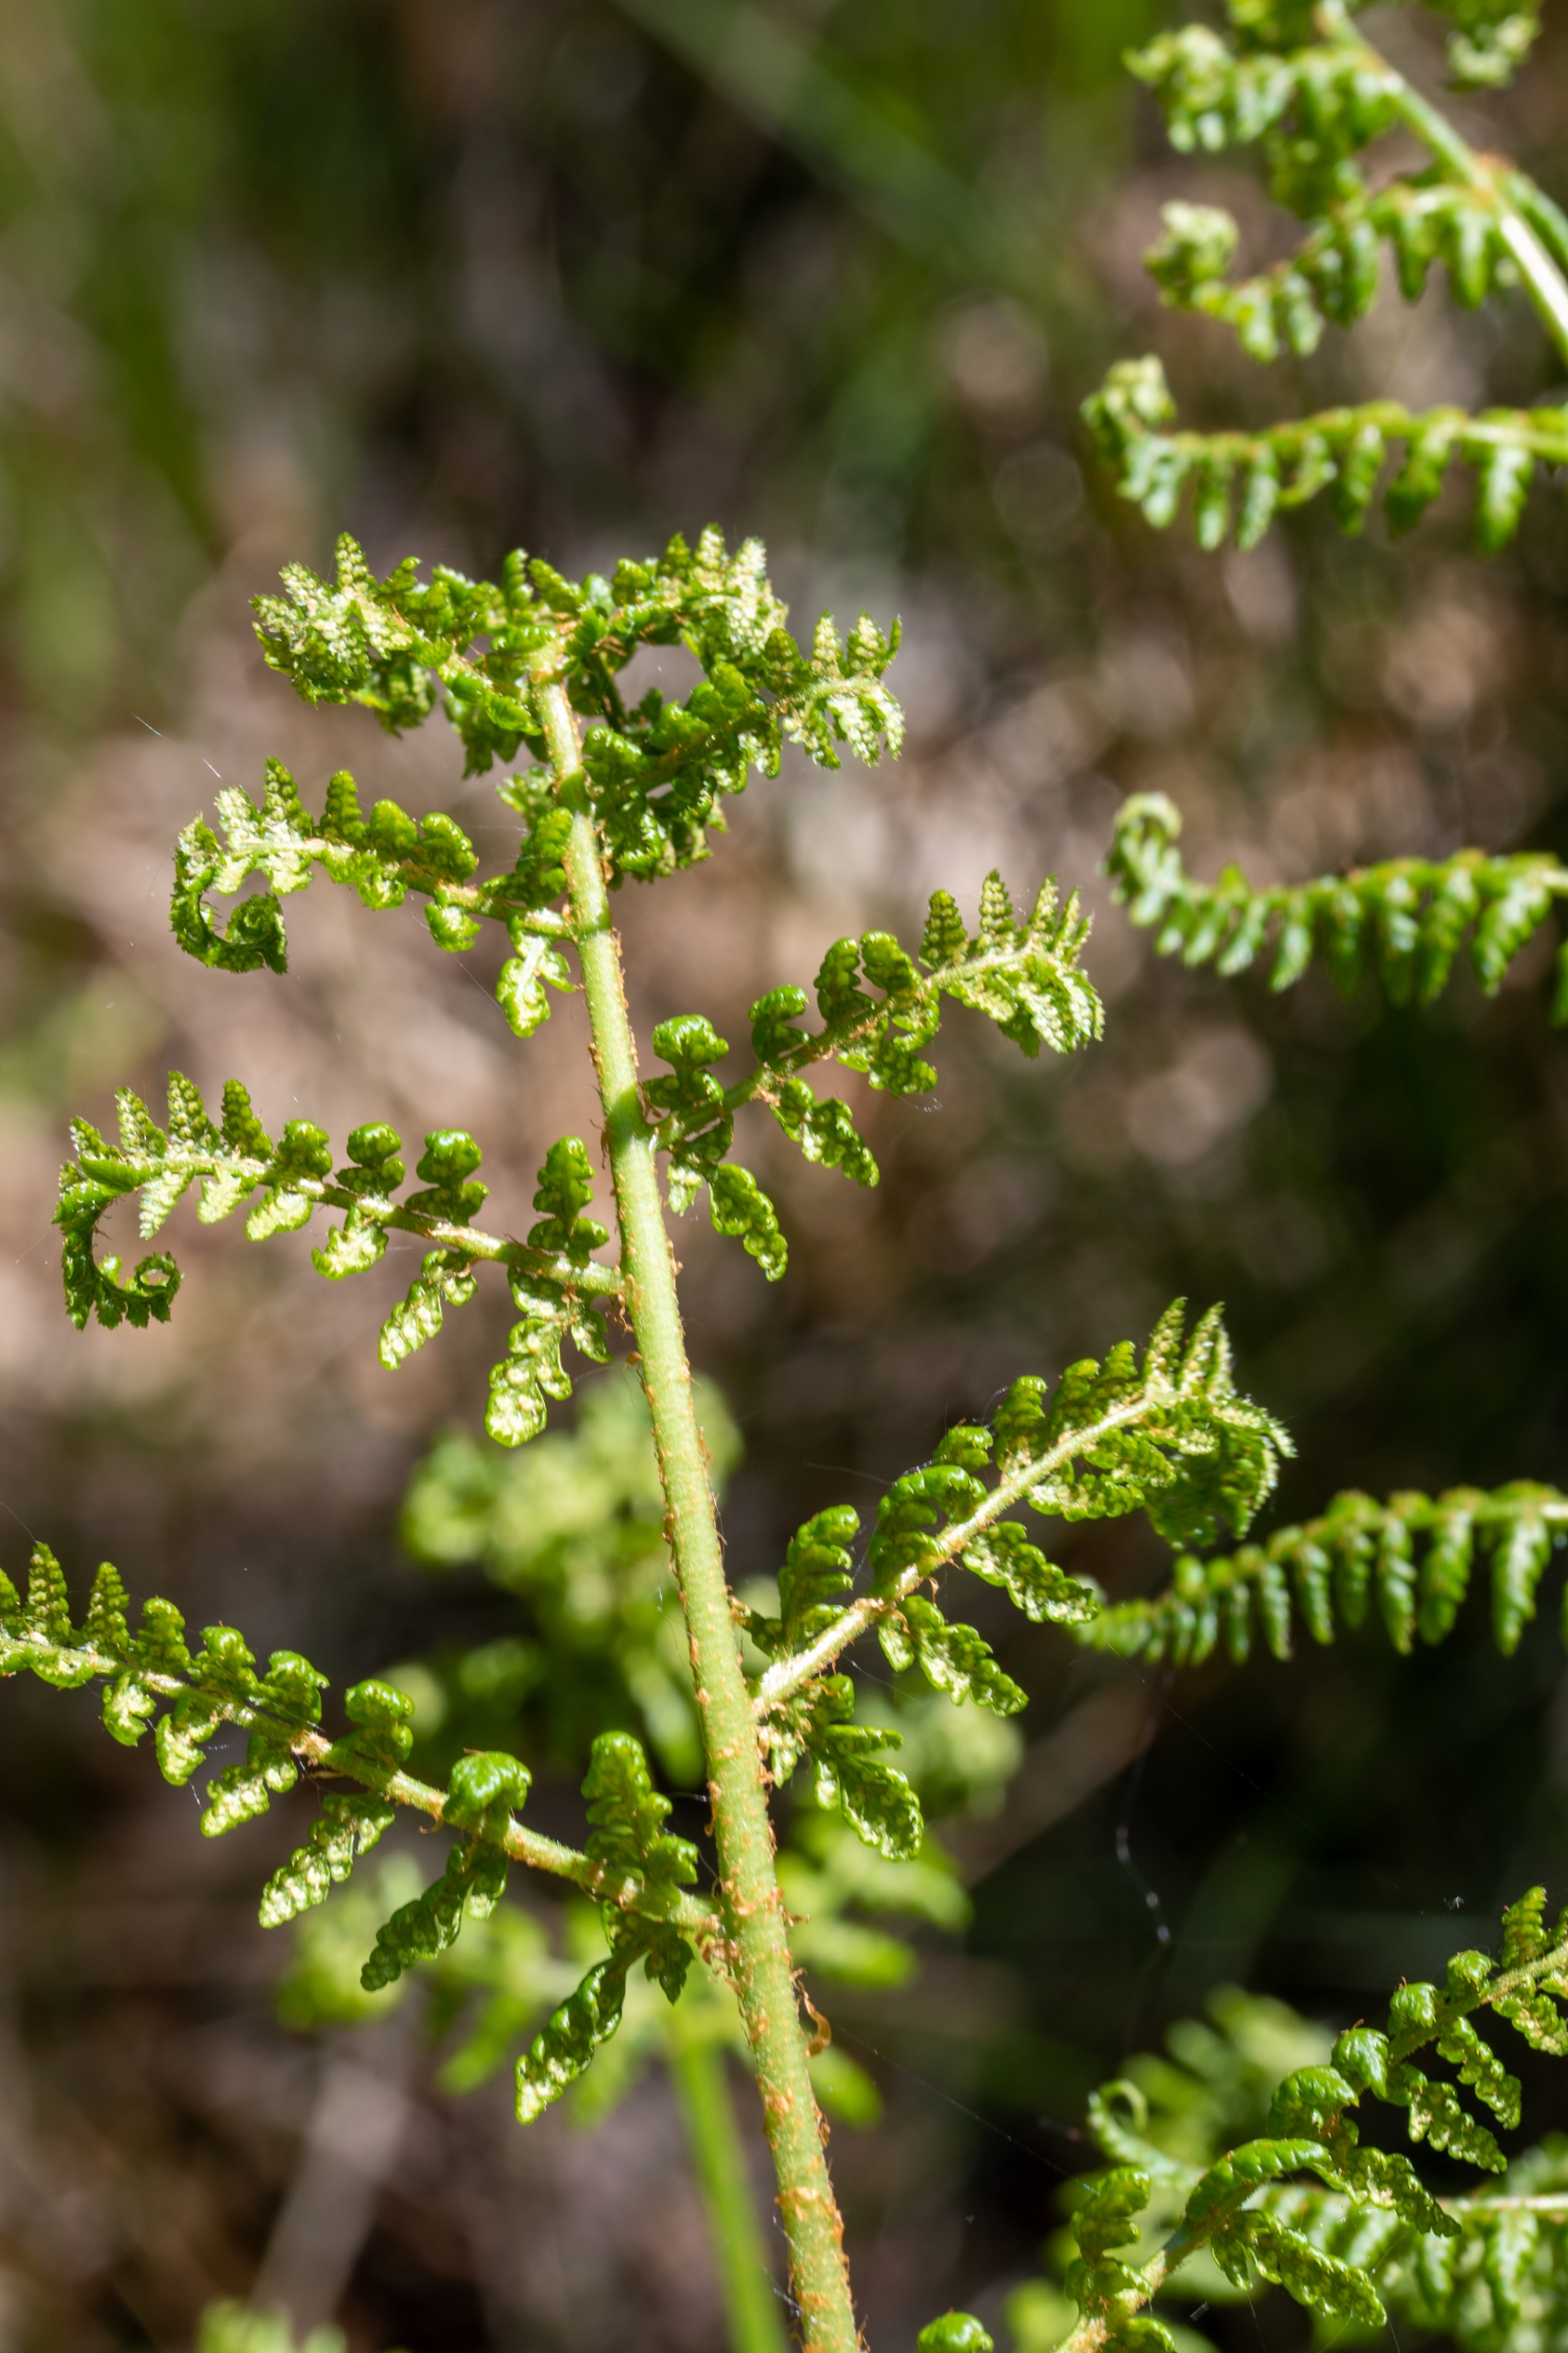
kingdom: Plantae
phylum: Tracheophyta
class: Polypodiopsida
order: Polypodiales
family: Athyriaceae
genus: Athyrium
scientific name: Athyrium filix-femina
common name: Fjerbregne
